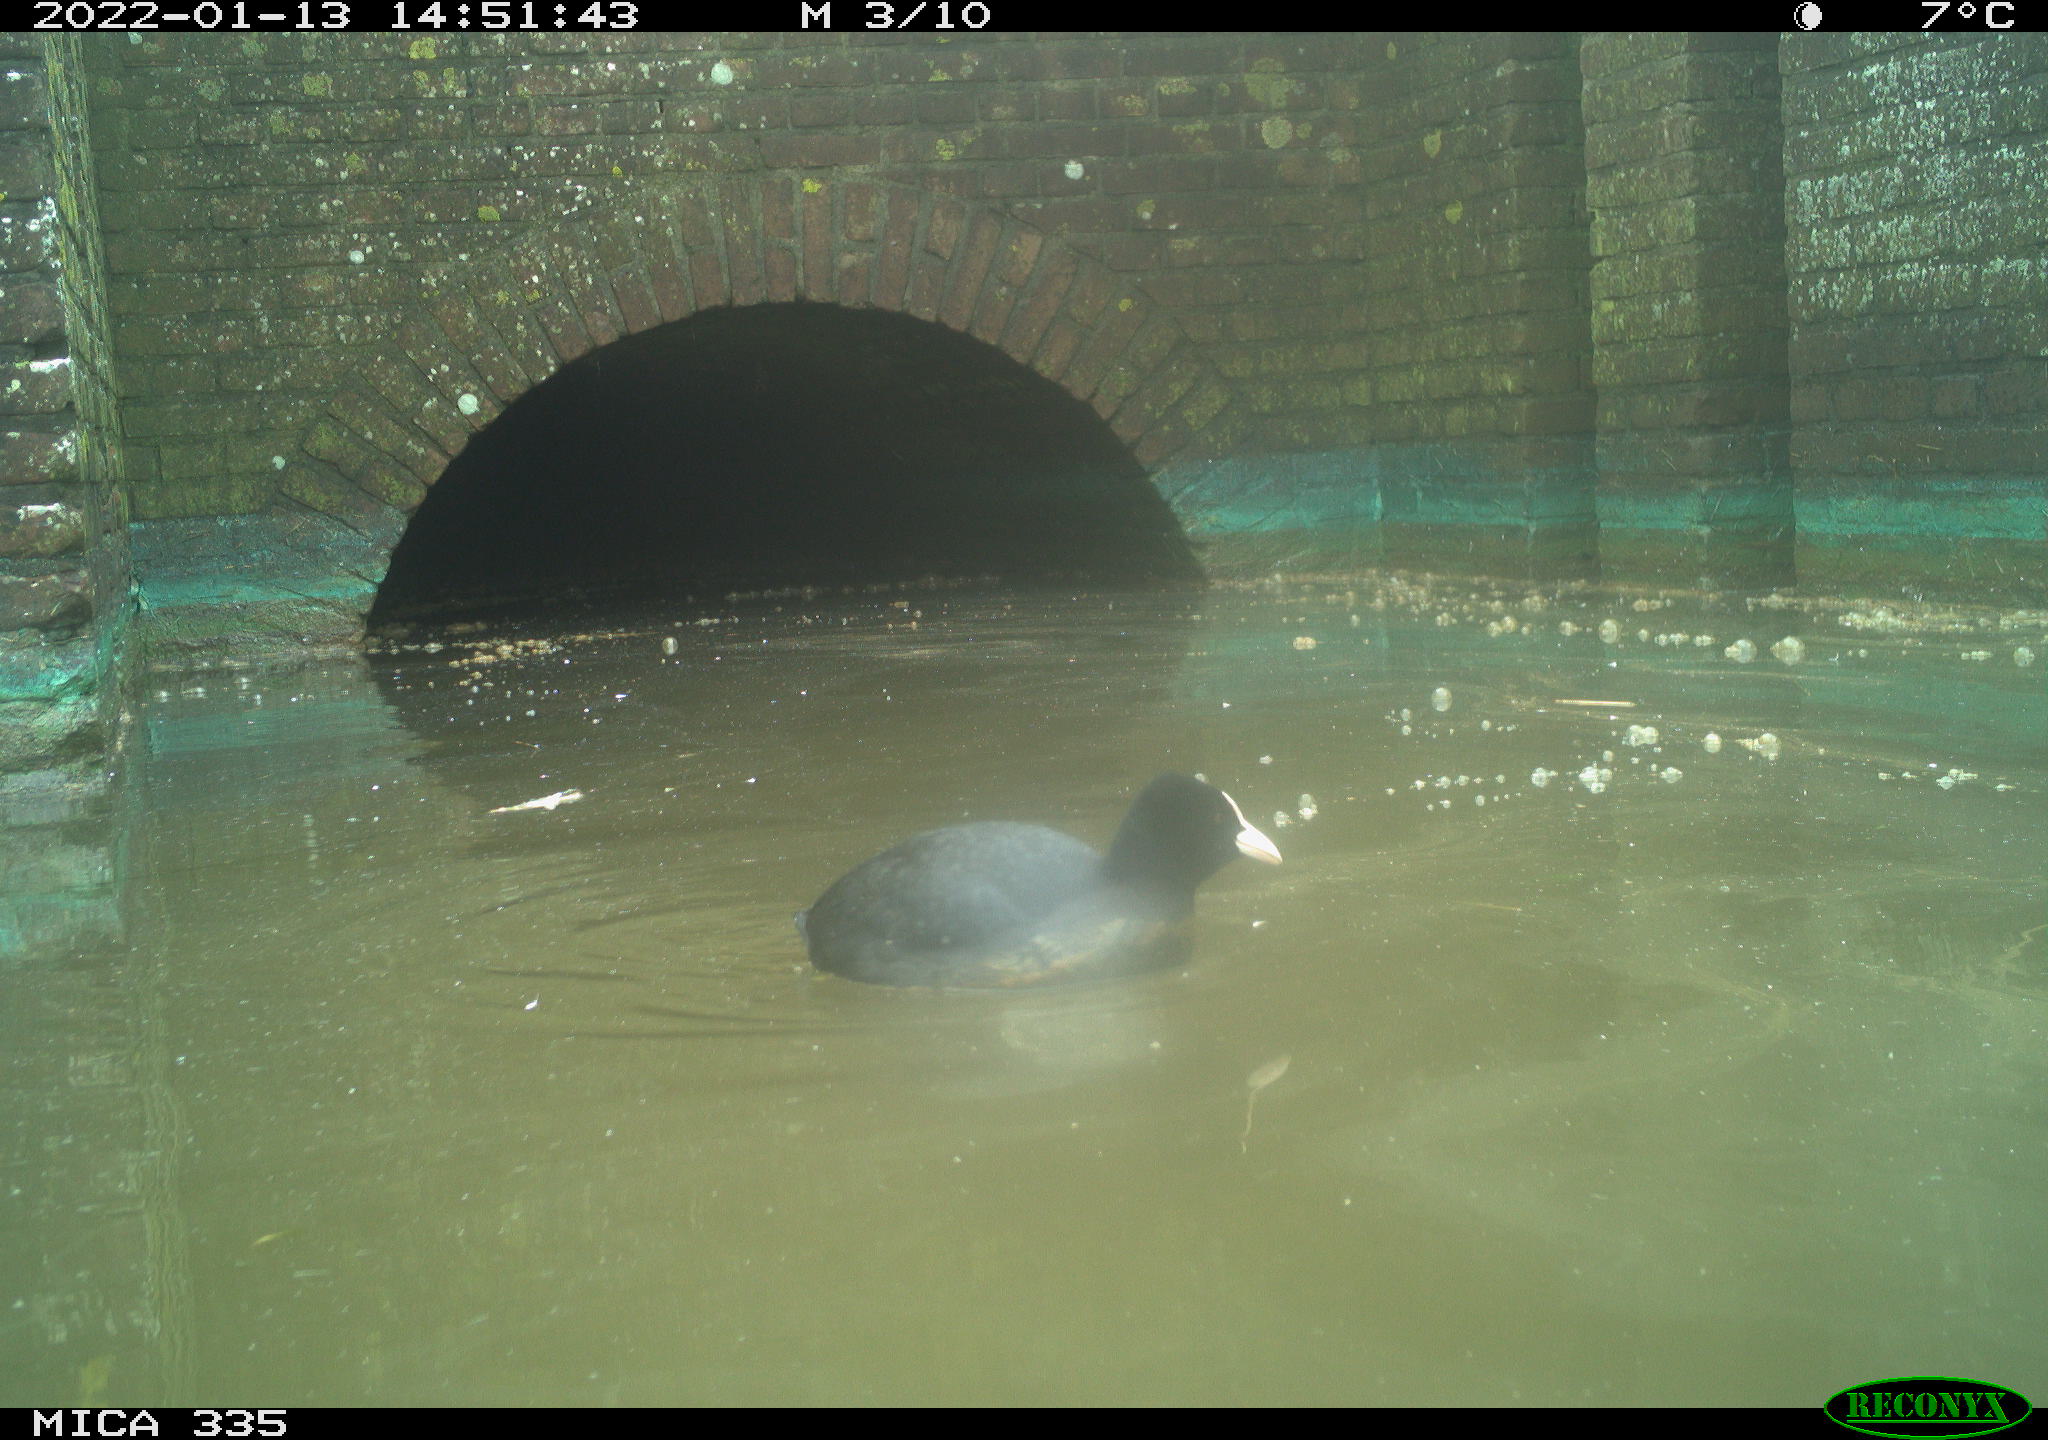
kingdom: Animalia
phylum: Chordata
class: Aves
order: Gruiformes
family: Rallidae
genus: Fulica
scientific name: Fulica atra
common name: Eurasian coot
